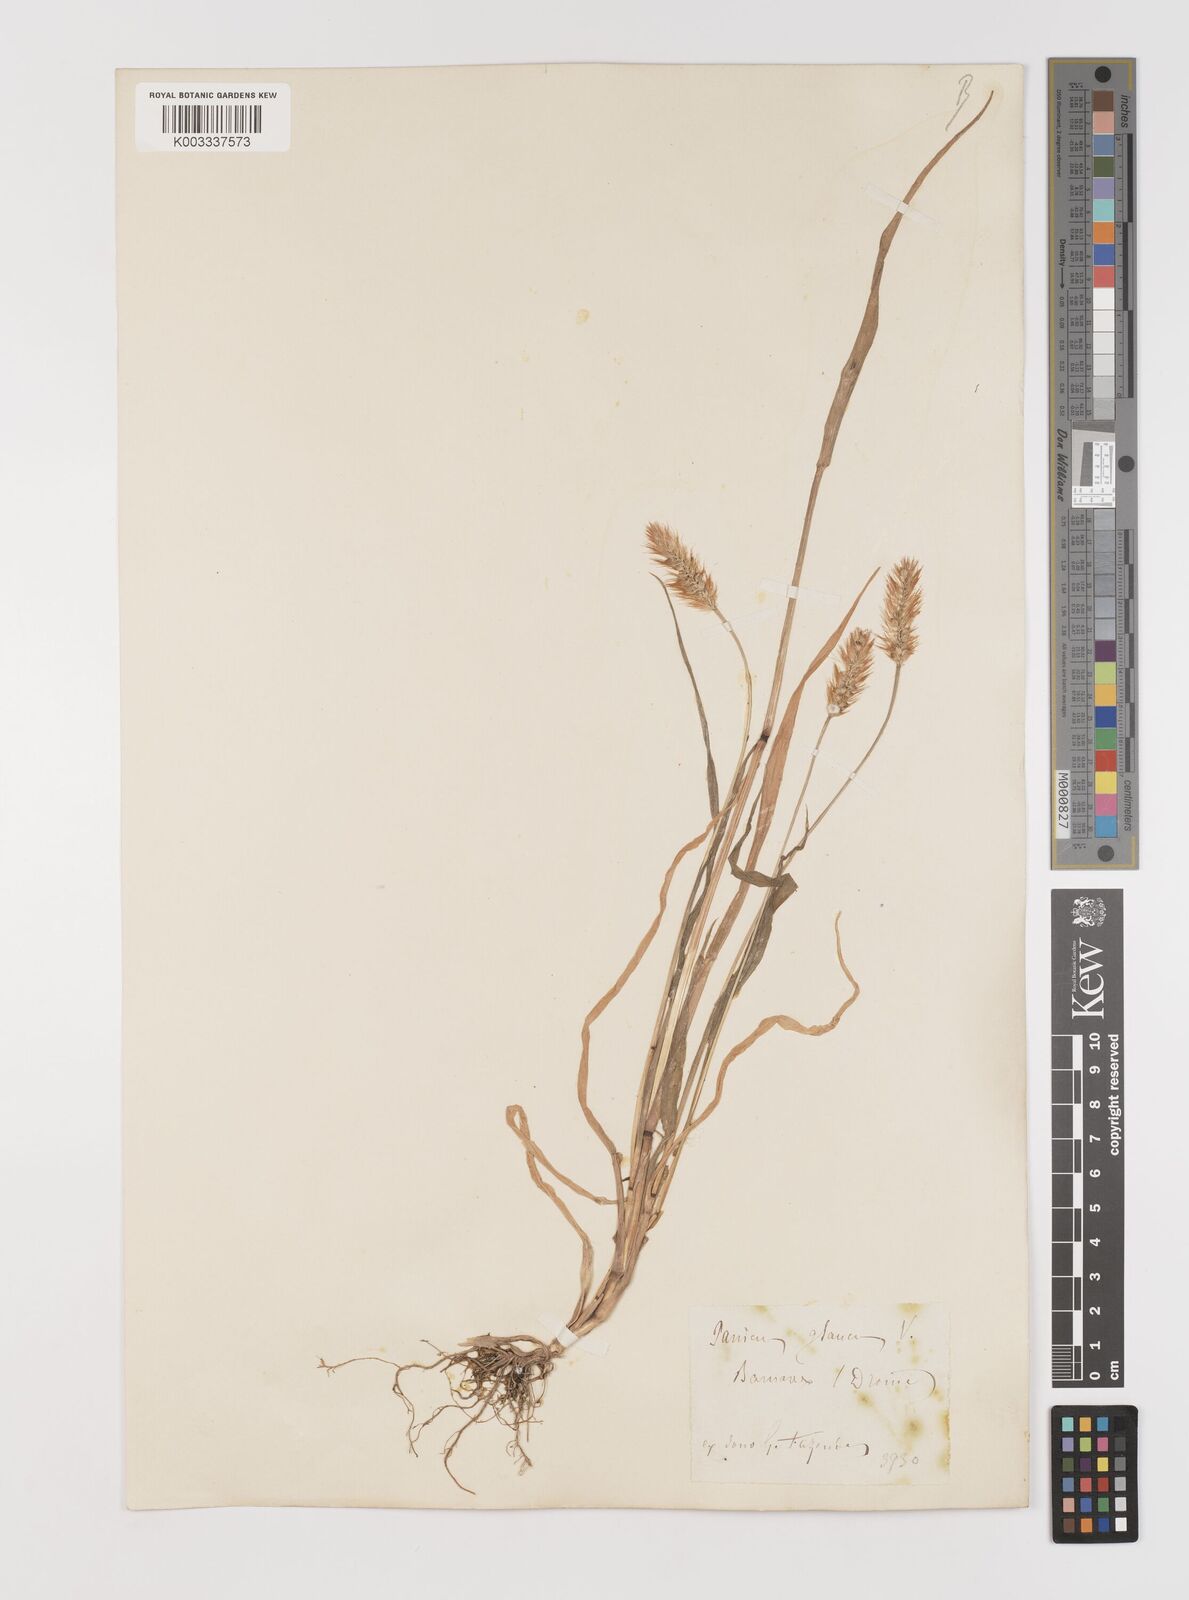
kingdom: Plantae
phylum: Tracheophyta
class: Liliopsida
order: Poales
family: Poaceae
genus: Setaria
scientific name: Setaria pumila
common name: Yellow bristle-grass
